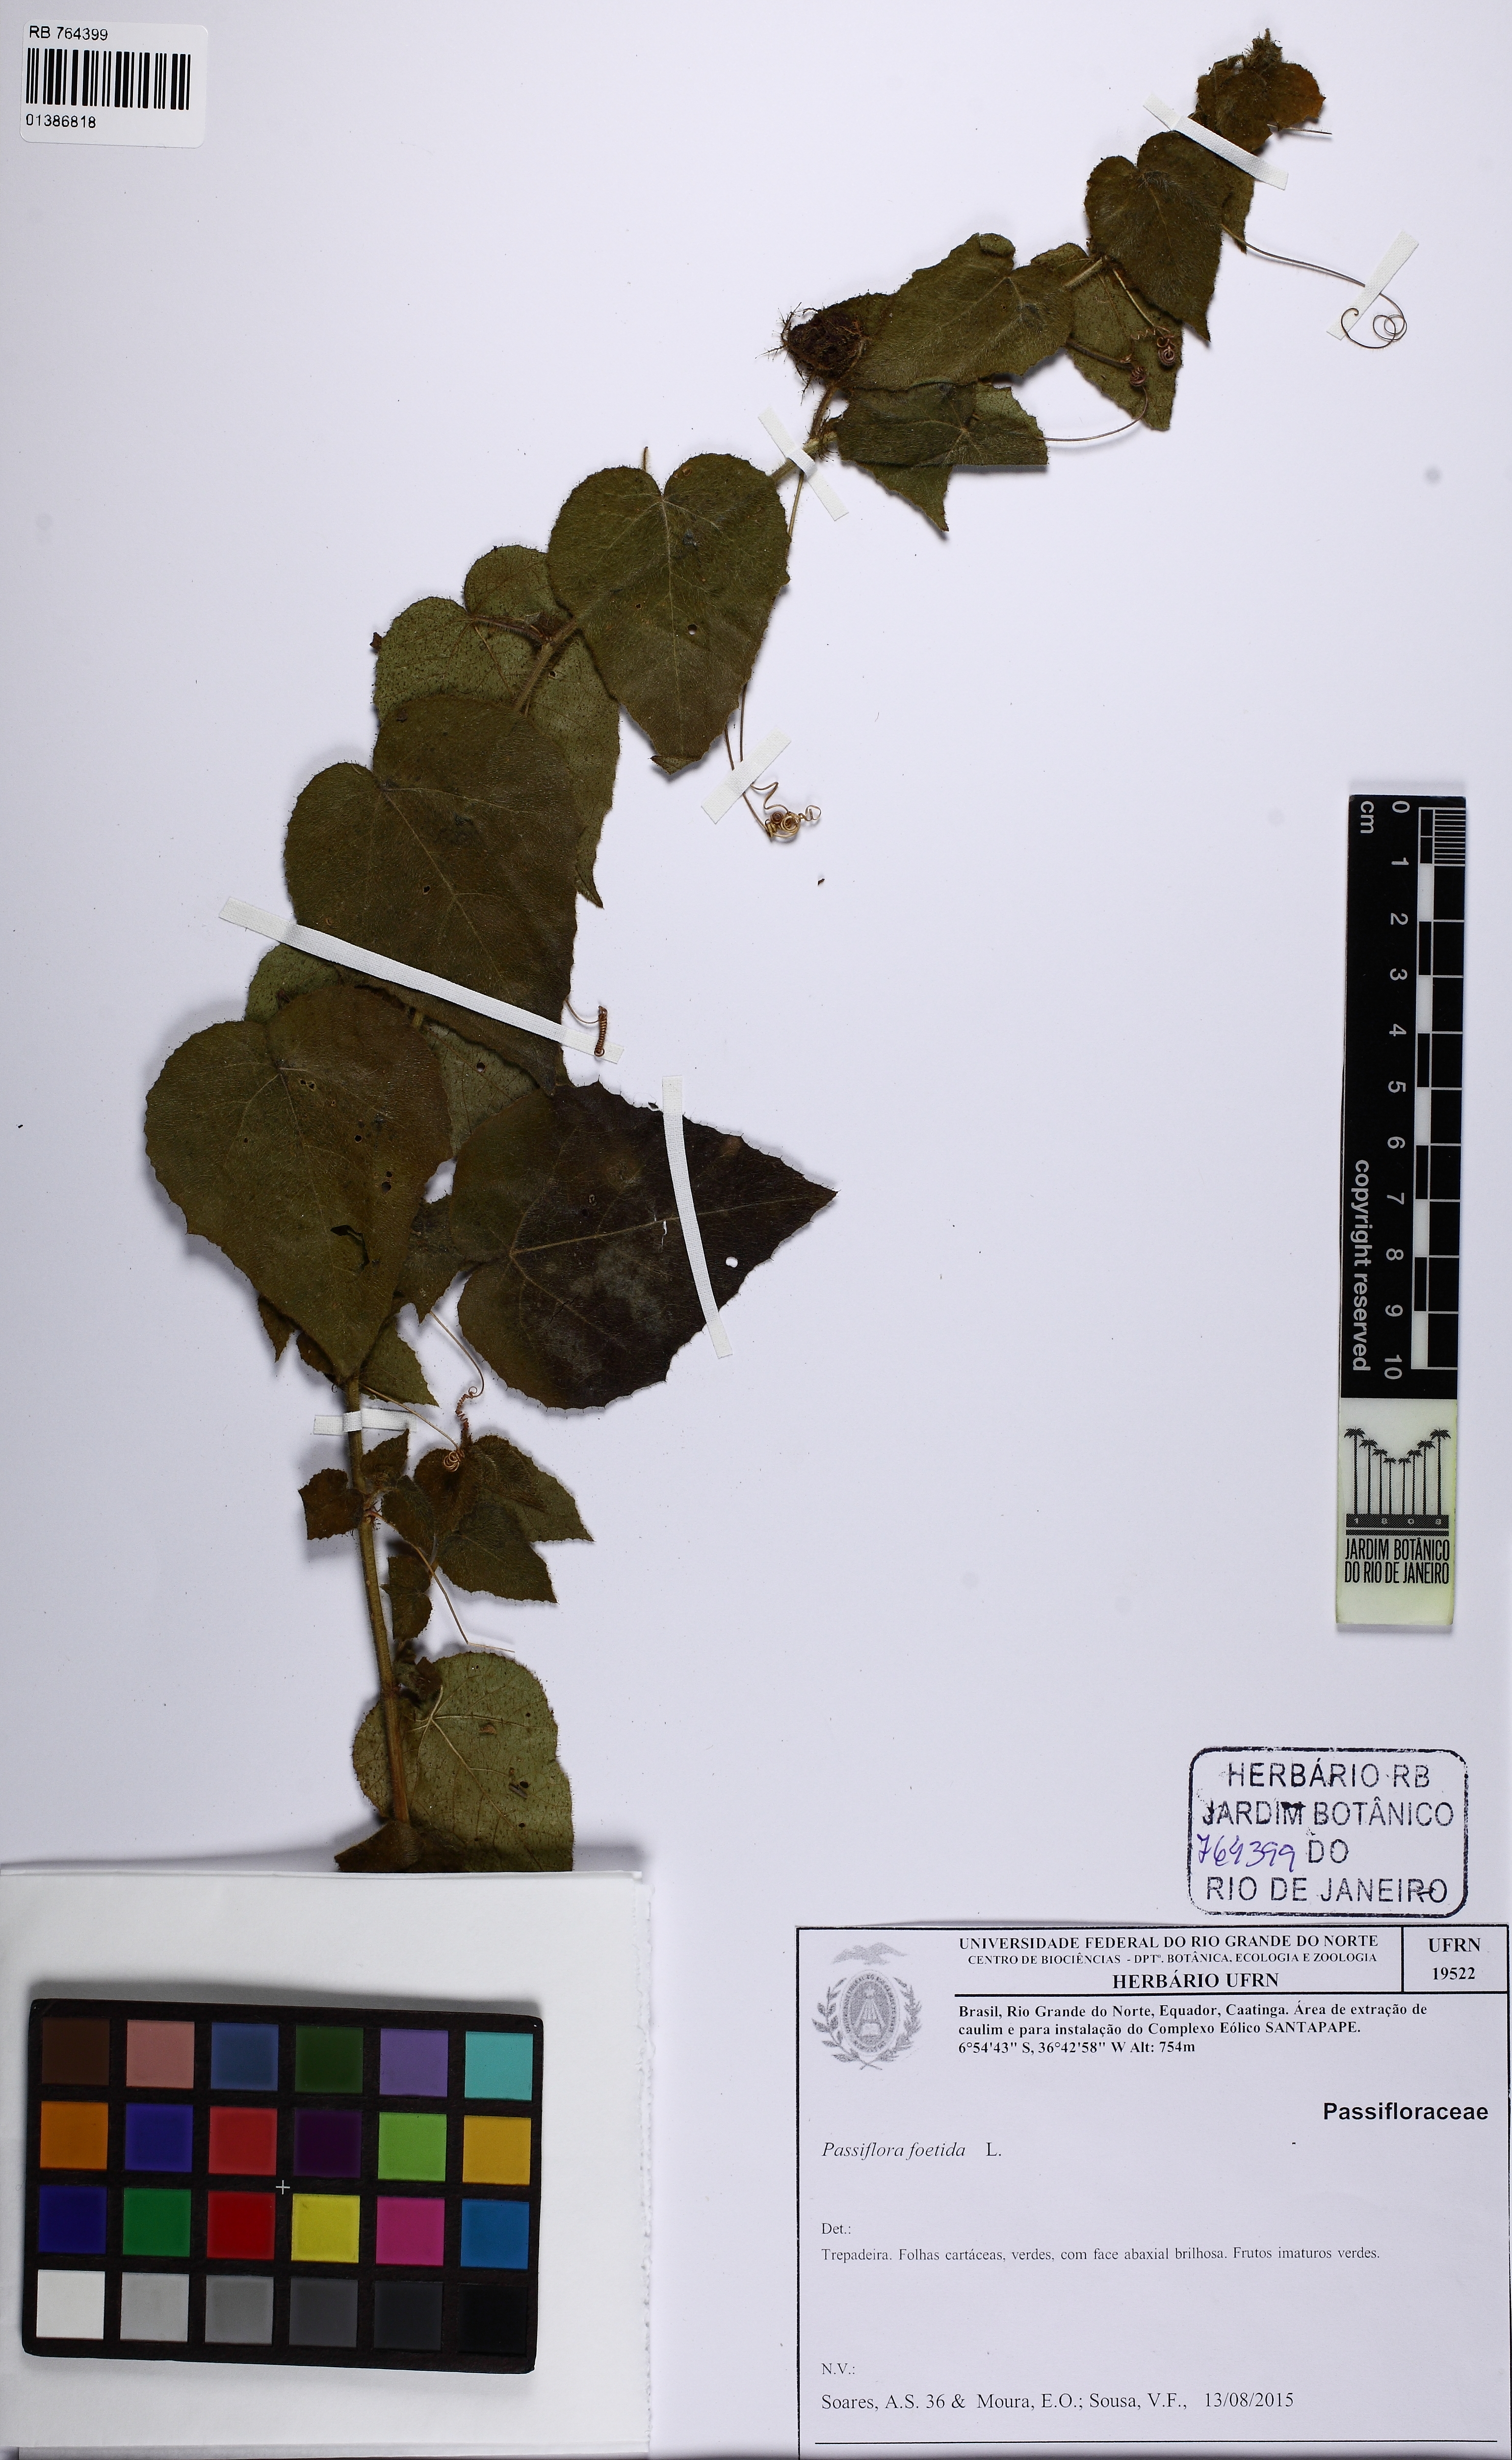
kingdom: Plantae
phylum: Tracheophyta
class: Magnoliopsida
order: Malpighiales
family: Passifloraceae
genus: Passiflora
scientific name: Passiflora foetida
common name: Fetid passionflower
